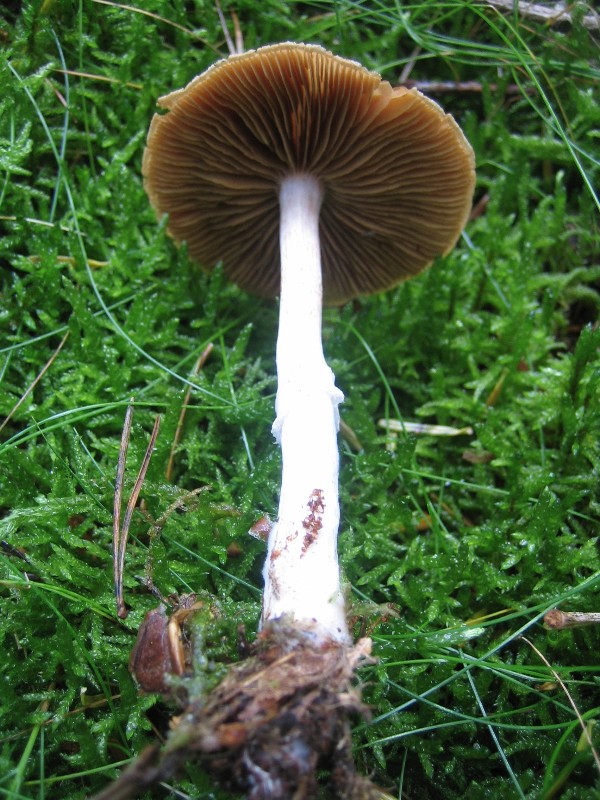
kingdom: Fungi
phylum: Basidiomycota
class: Agaricomycetes
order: Agaricales
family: Cortinariaceae
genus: Cortinarius
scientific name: Cortinarius kauffmanianus
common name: plantage-slørhat
